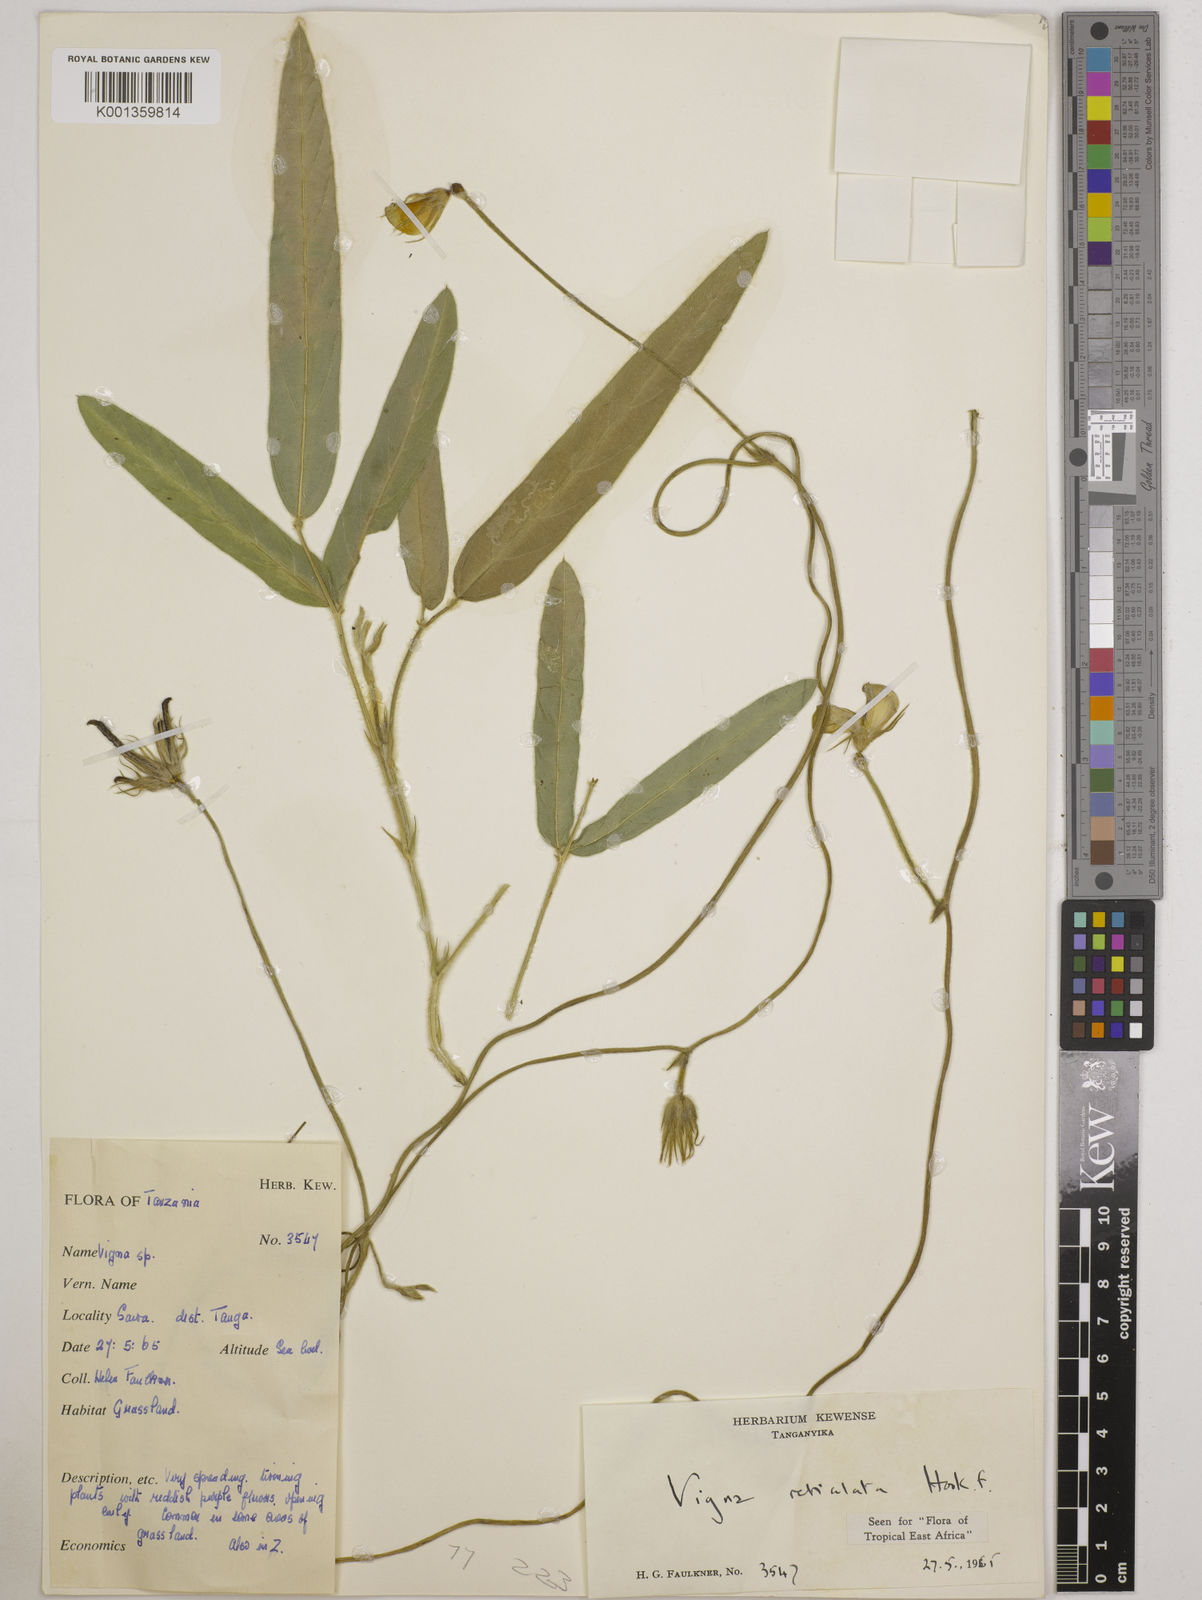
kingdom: Plantae
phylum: Tracheophyta
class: Magnoliopsida
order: Fabales
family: Fabaceae
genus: Vigna
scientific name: Vigna reticulata
